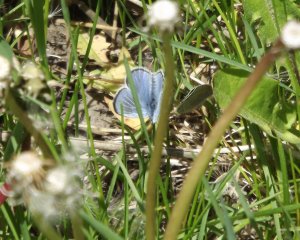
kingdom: Animalia
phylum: Arthropoda
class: Insecta
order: Lepidoptera
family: Lycaenidae
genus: Celastrina
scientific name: Celastrina
